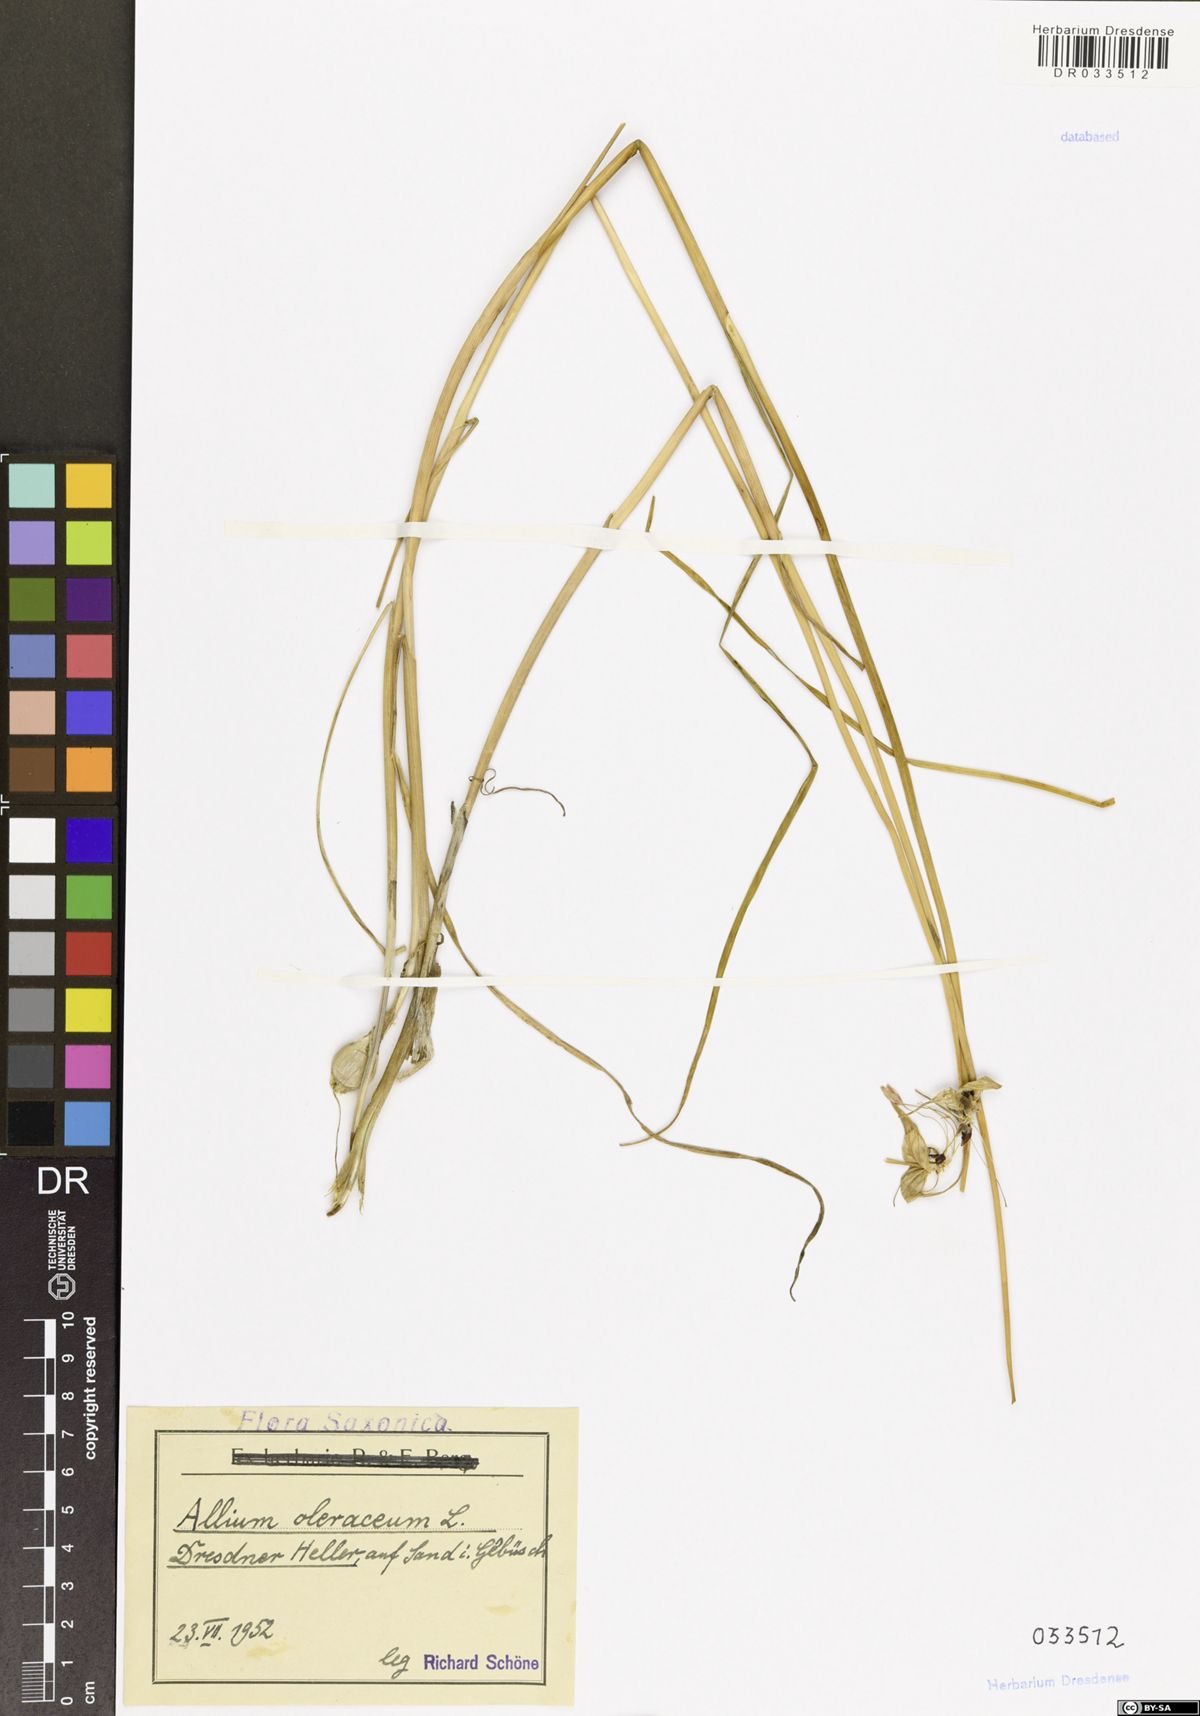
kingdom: Plantae
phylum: Tracheophyta
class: Liliopsida
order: Asparagales
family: Amaryllidaceae
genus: Allium
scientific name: Allium oleraceum
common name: Field garlic
